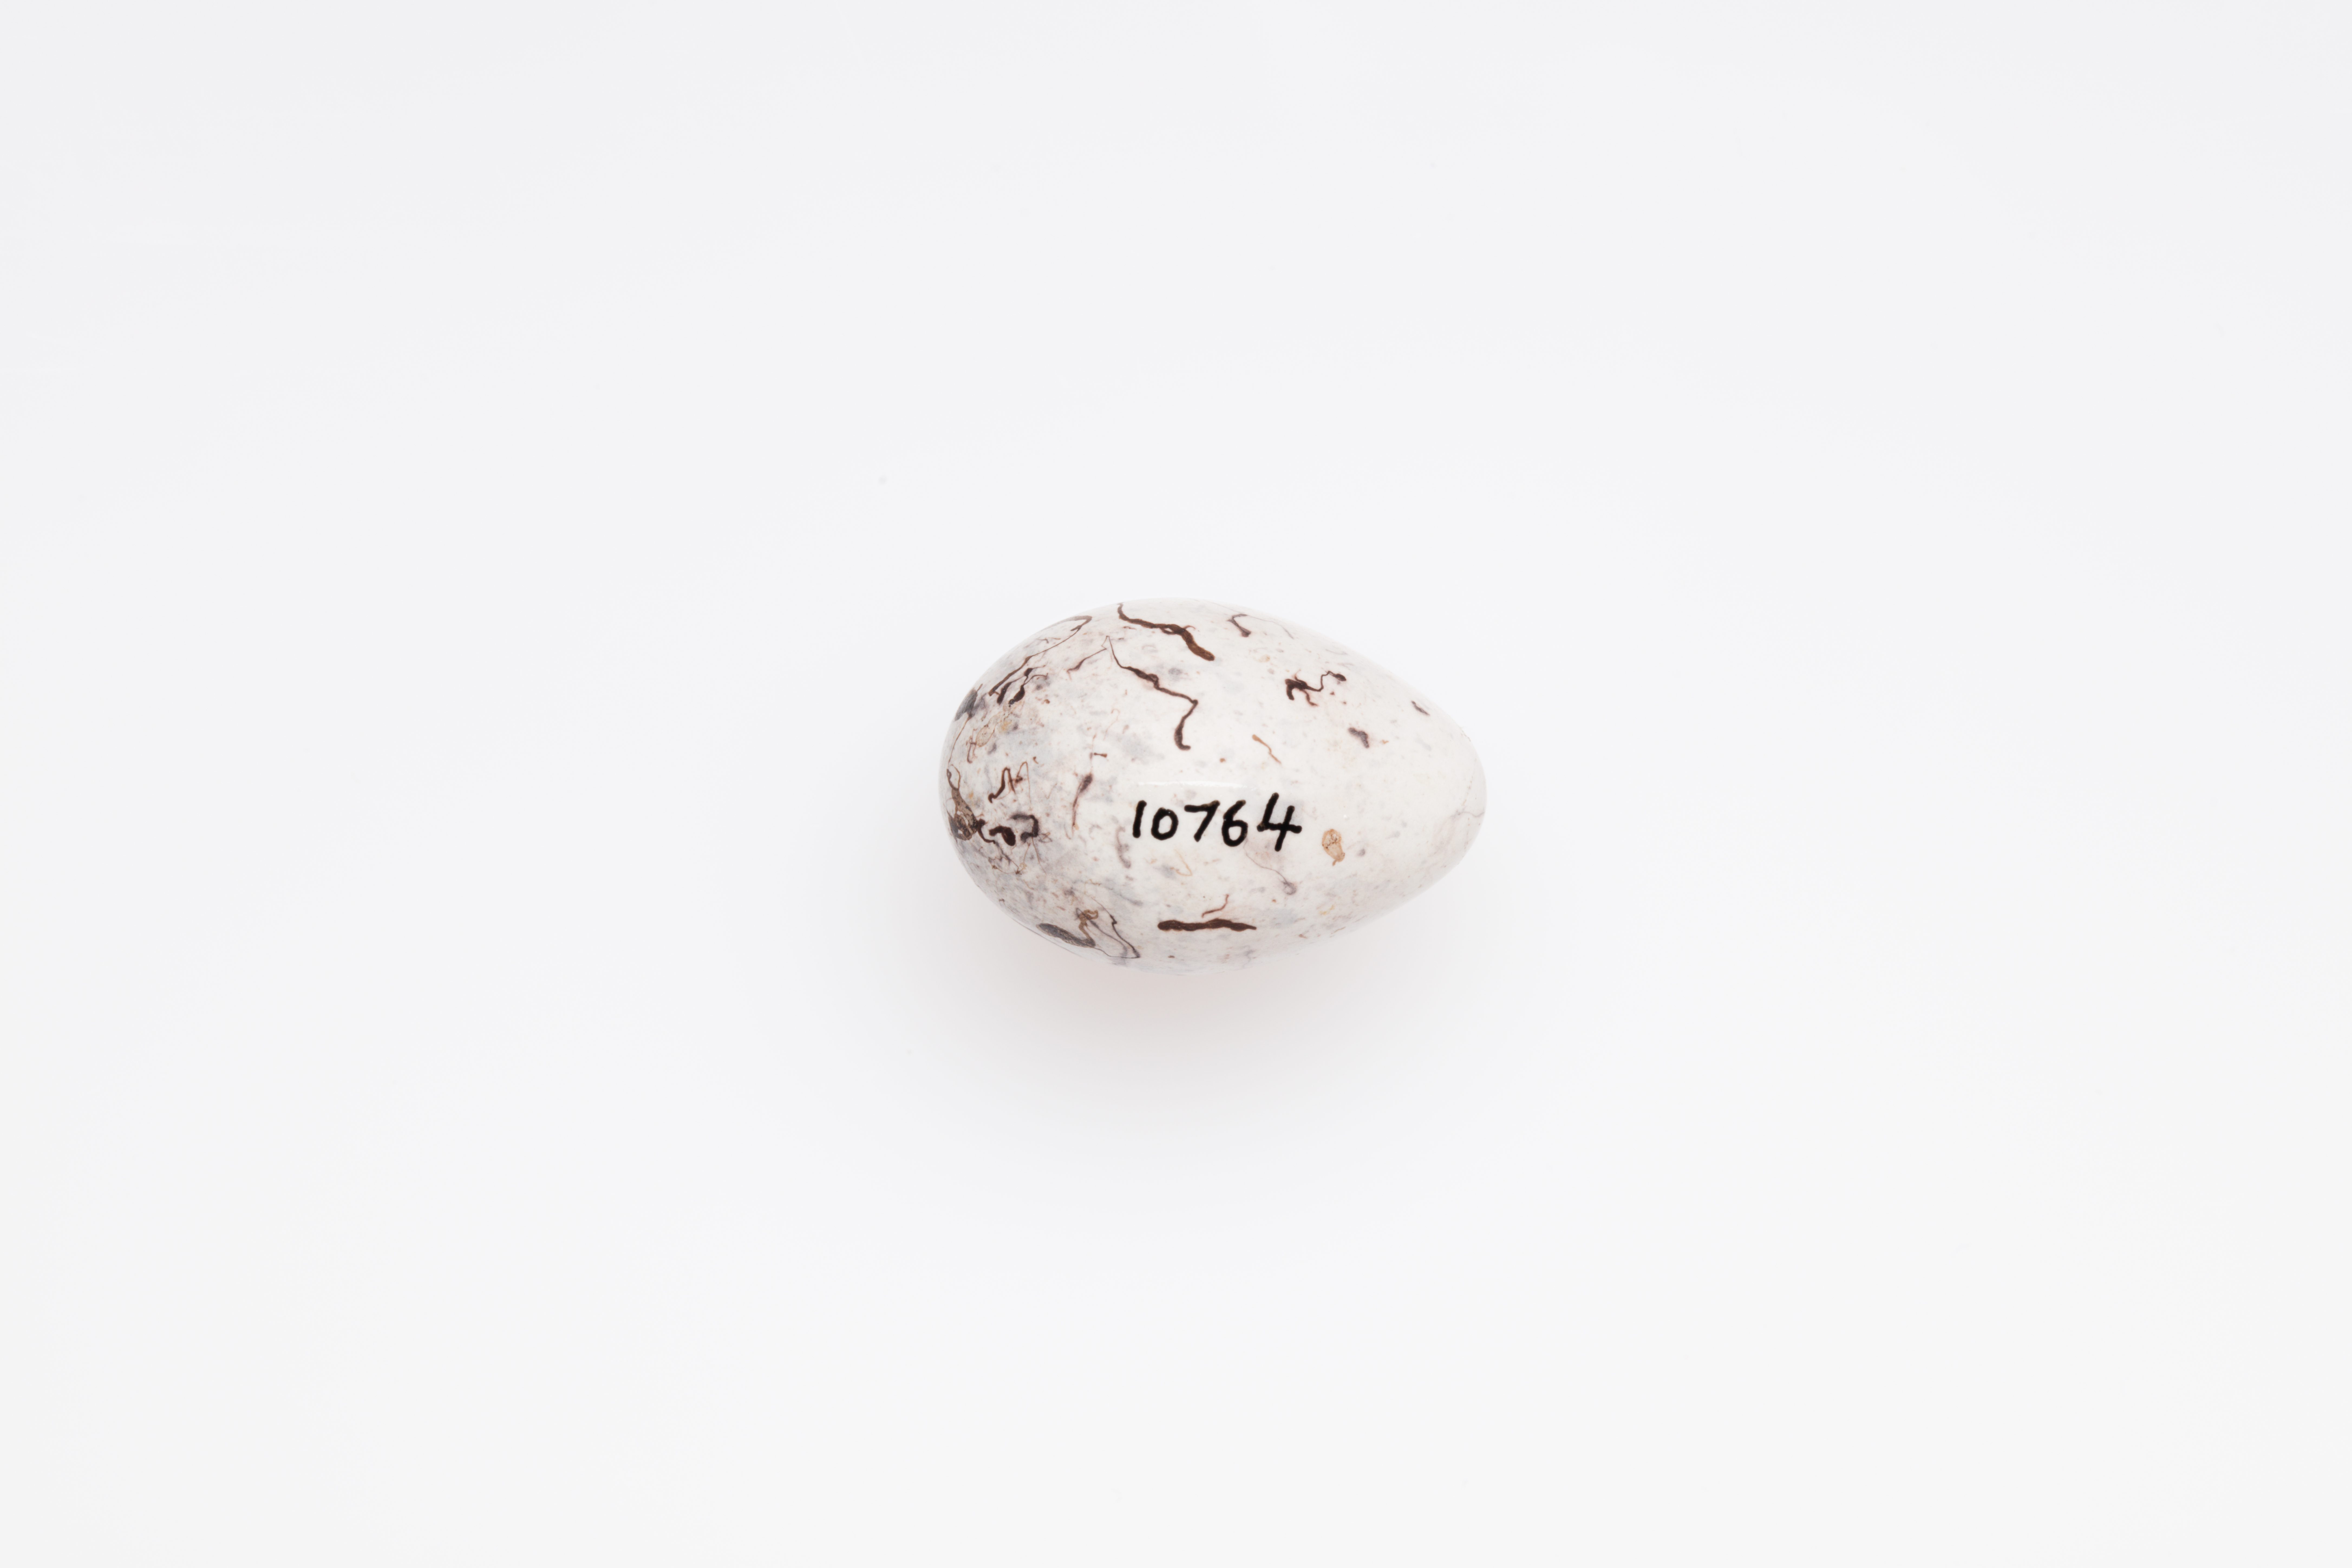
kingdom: Animalia
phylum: Chordata
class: Aves
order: Passeriformes
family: Emberizidae
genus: Emberiza
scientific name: Emberiza citrinella
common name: Yellowhammer
